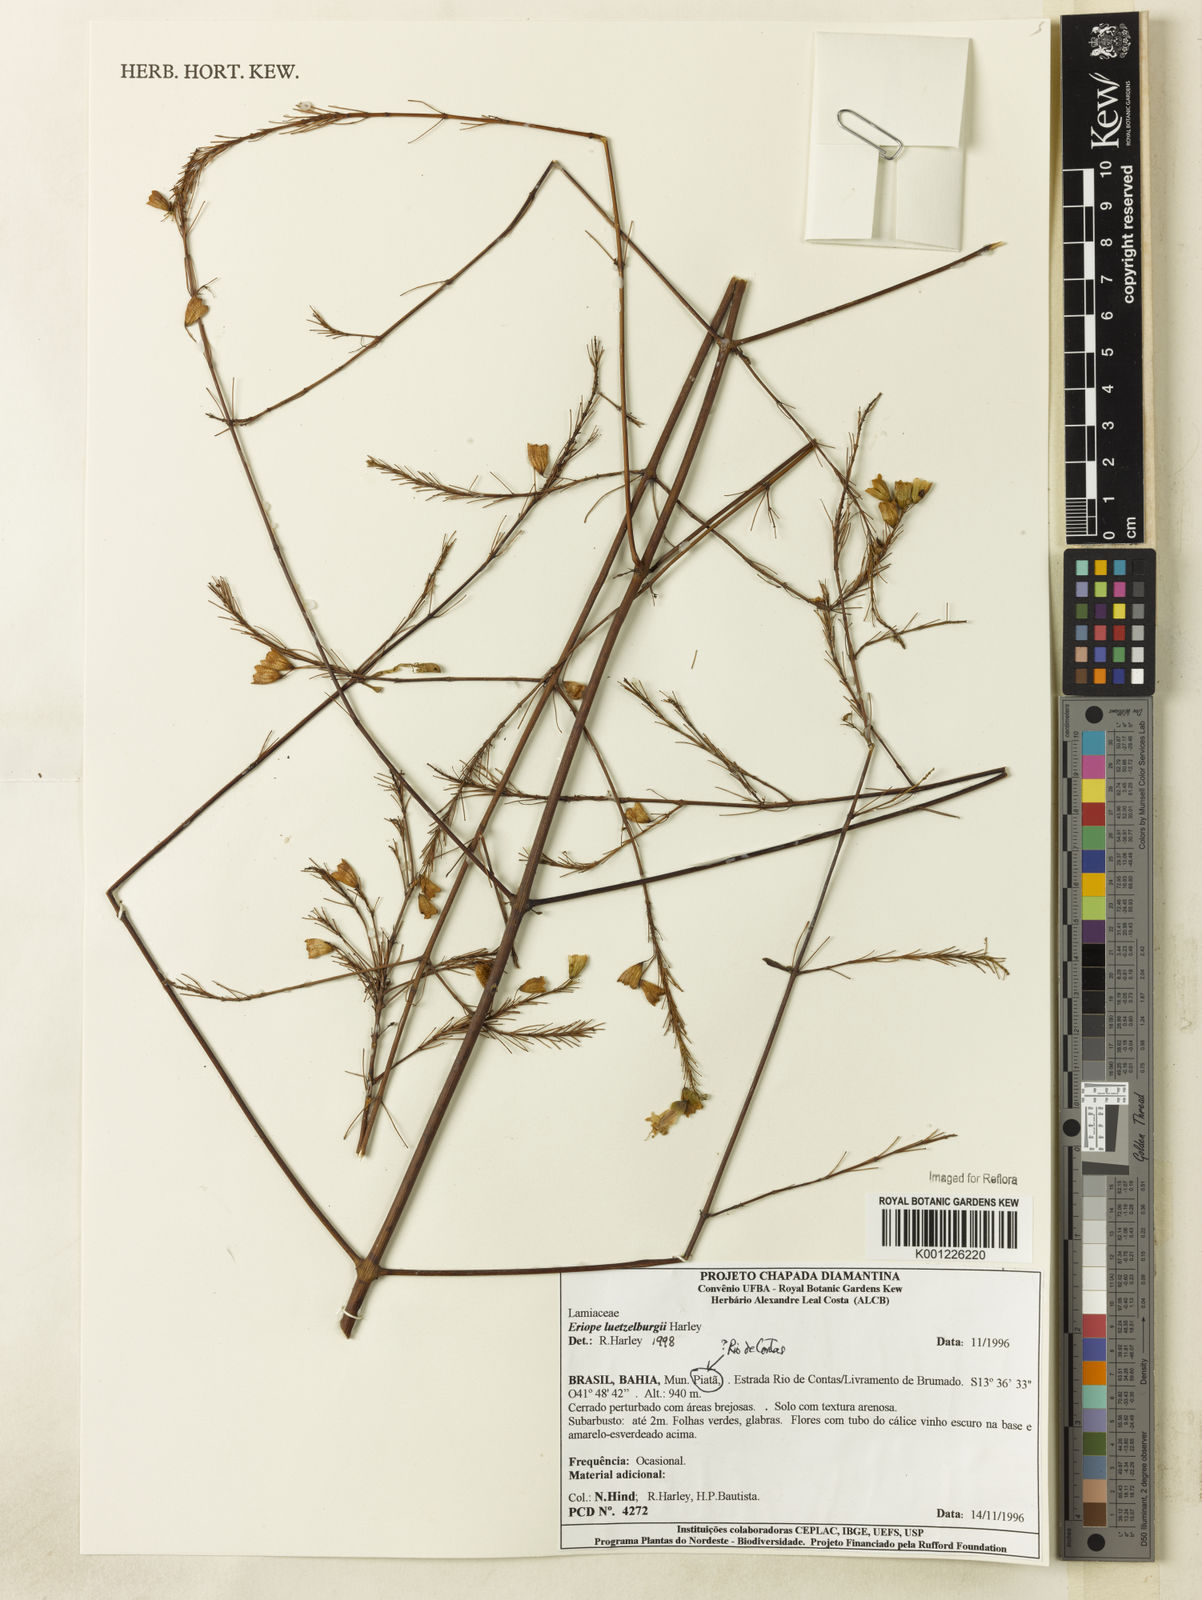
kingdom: Plantae
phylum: Tracheophyta
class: Magnoliopsida
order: Lamiales
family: Lamiaceae
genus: Eriope
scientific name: Eriope luetzelburgii
